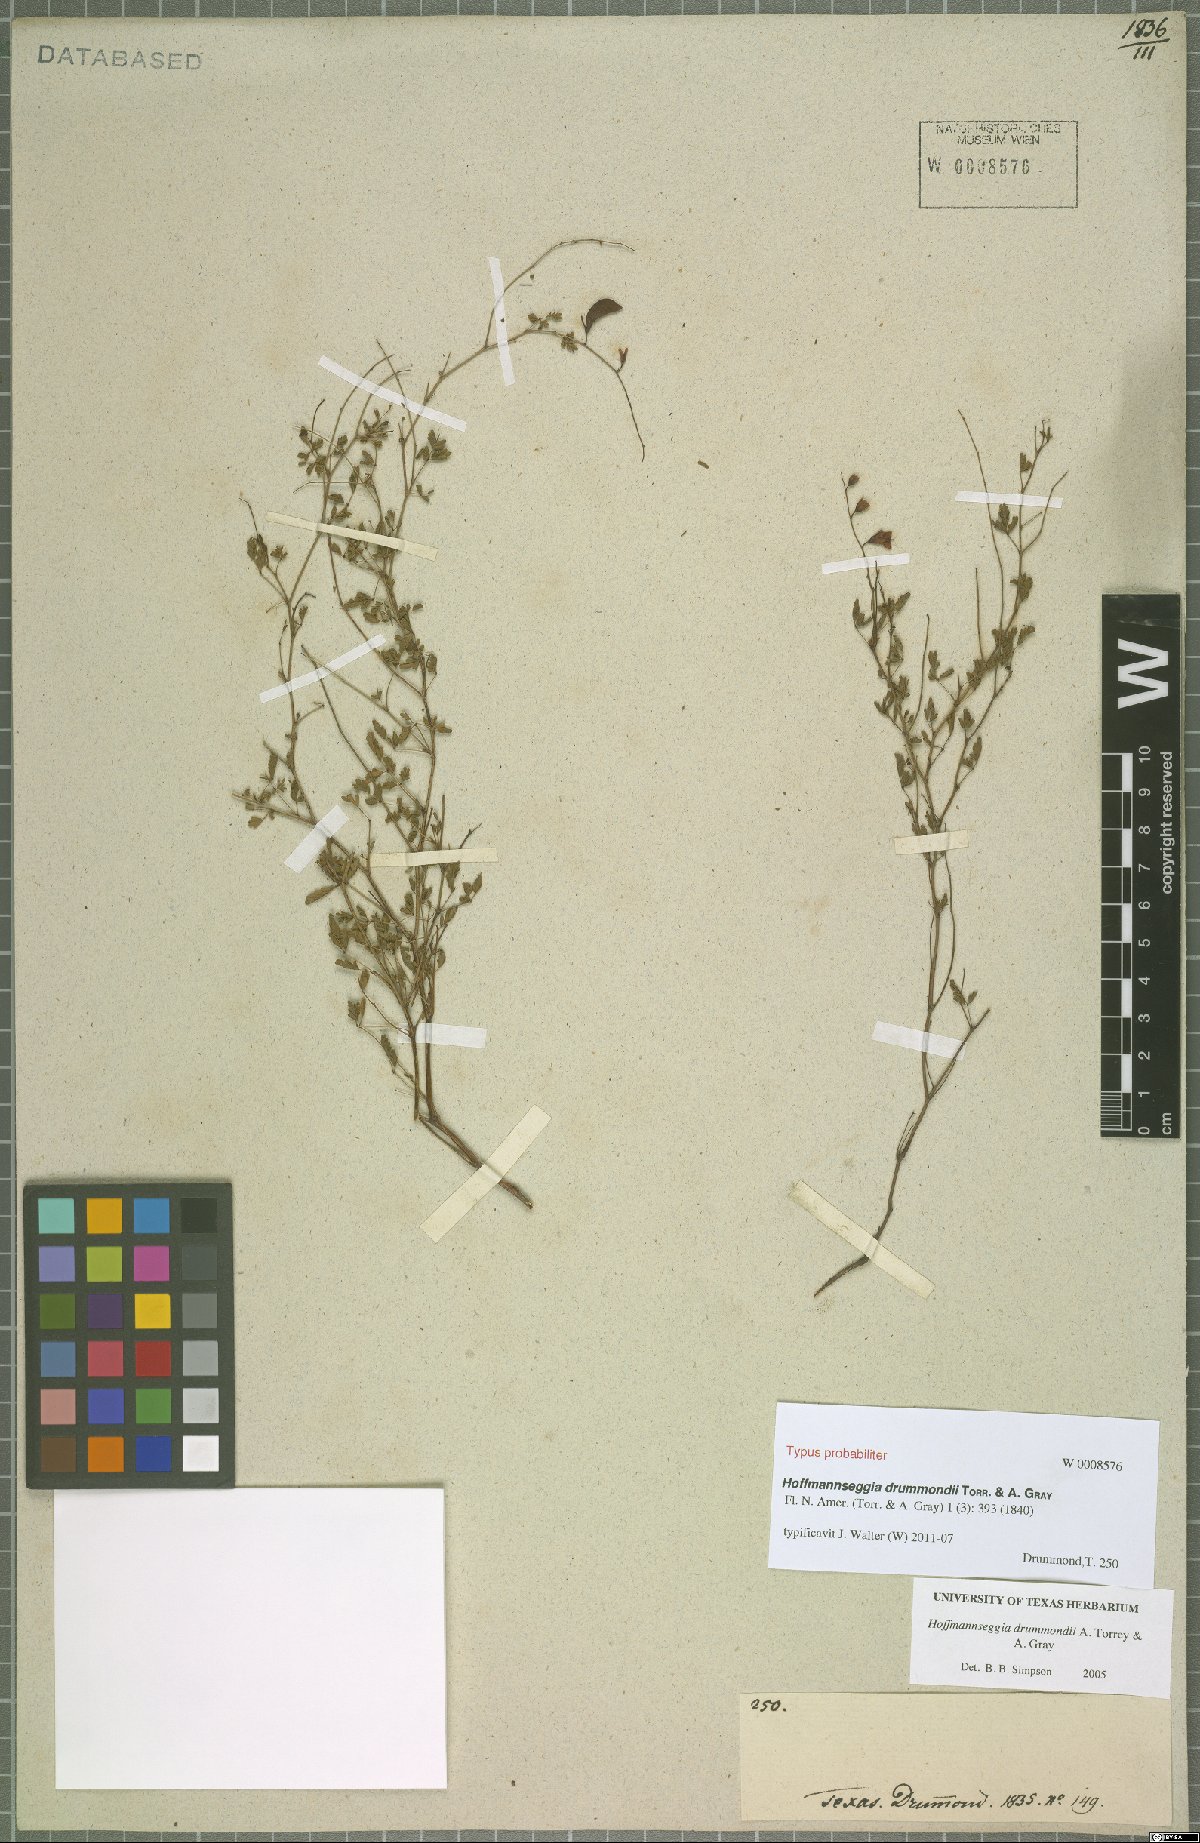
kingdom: Plantae
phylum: Tracheophyta
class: Magnoliopsida
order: Fabales
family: Fabaceae
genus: Hoffmannseggia
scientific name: Hoffmannseggia drummondii
